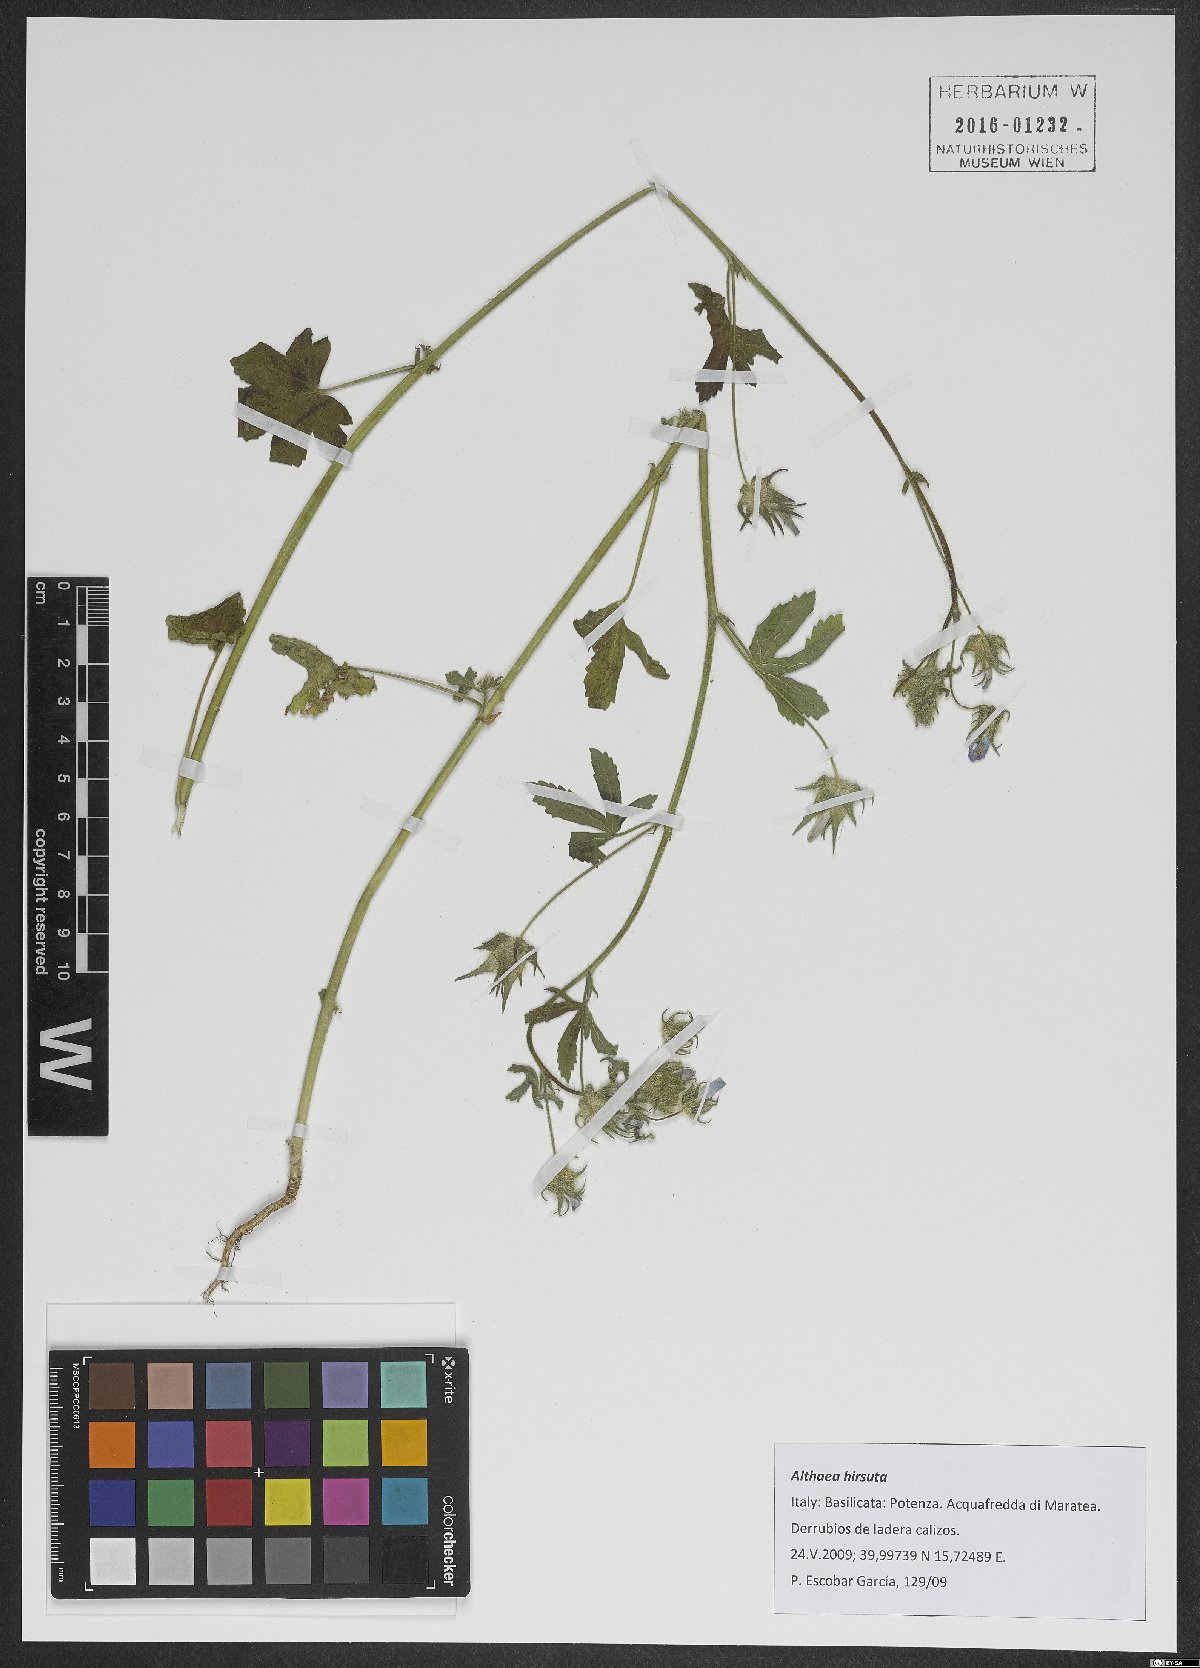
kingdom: Plantae
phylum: Tracheophyta
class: Magnoliopsida
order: Malvales
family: Malvaceae
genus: Althaea
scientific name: Althaea hirsuta
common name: Rough marsh-mallow
